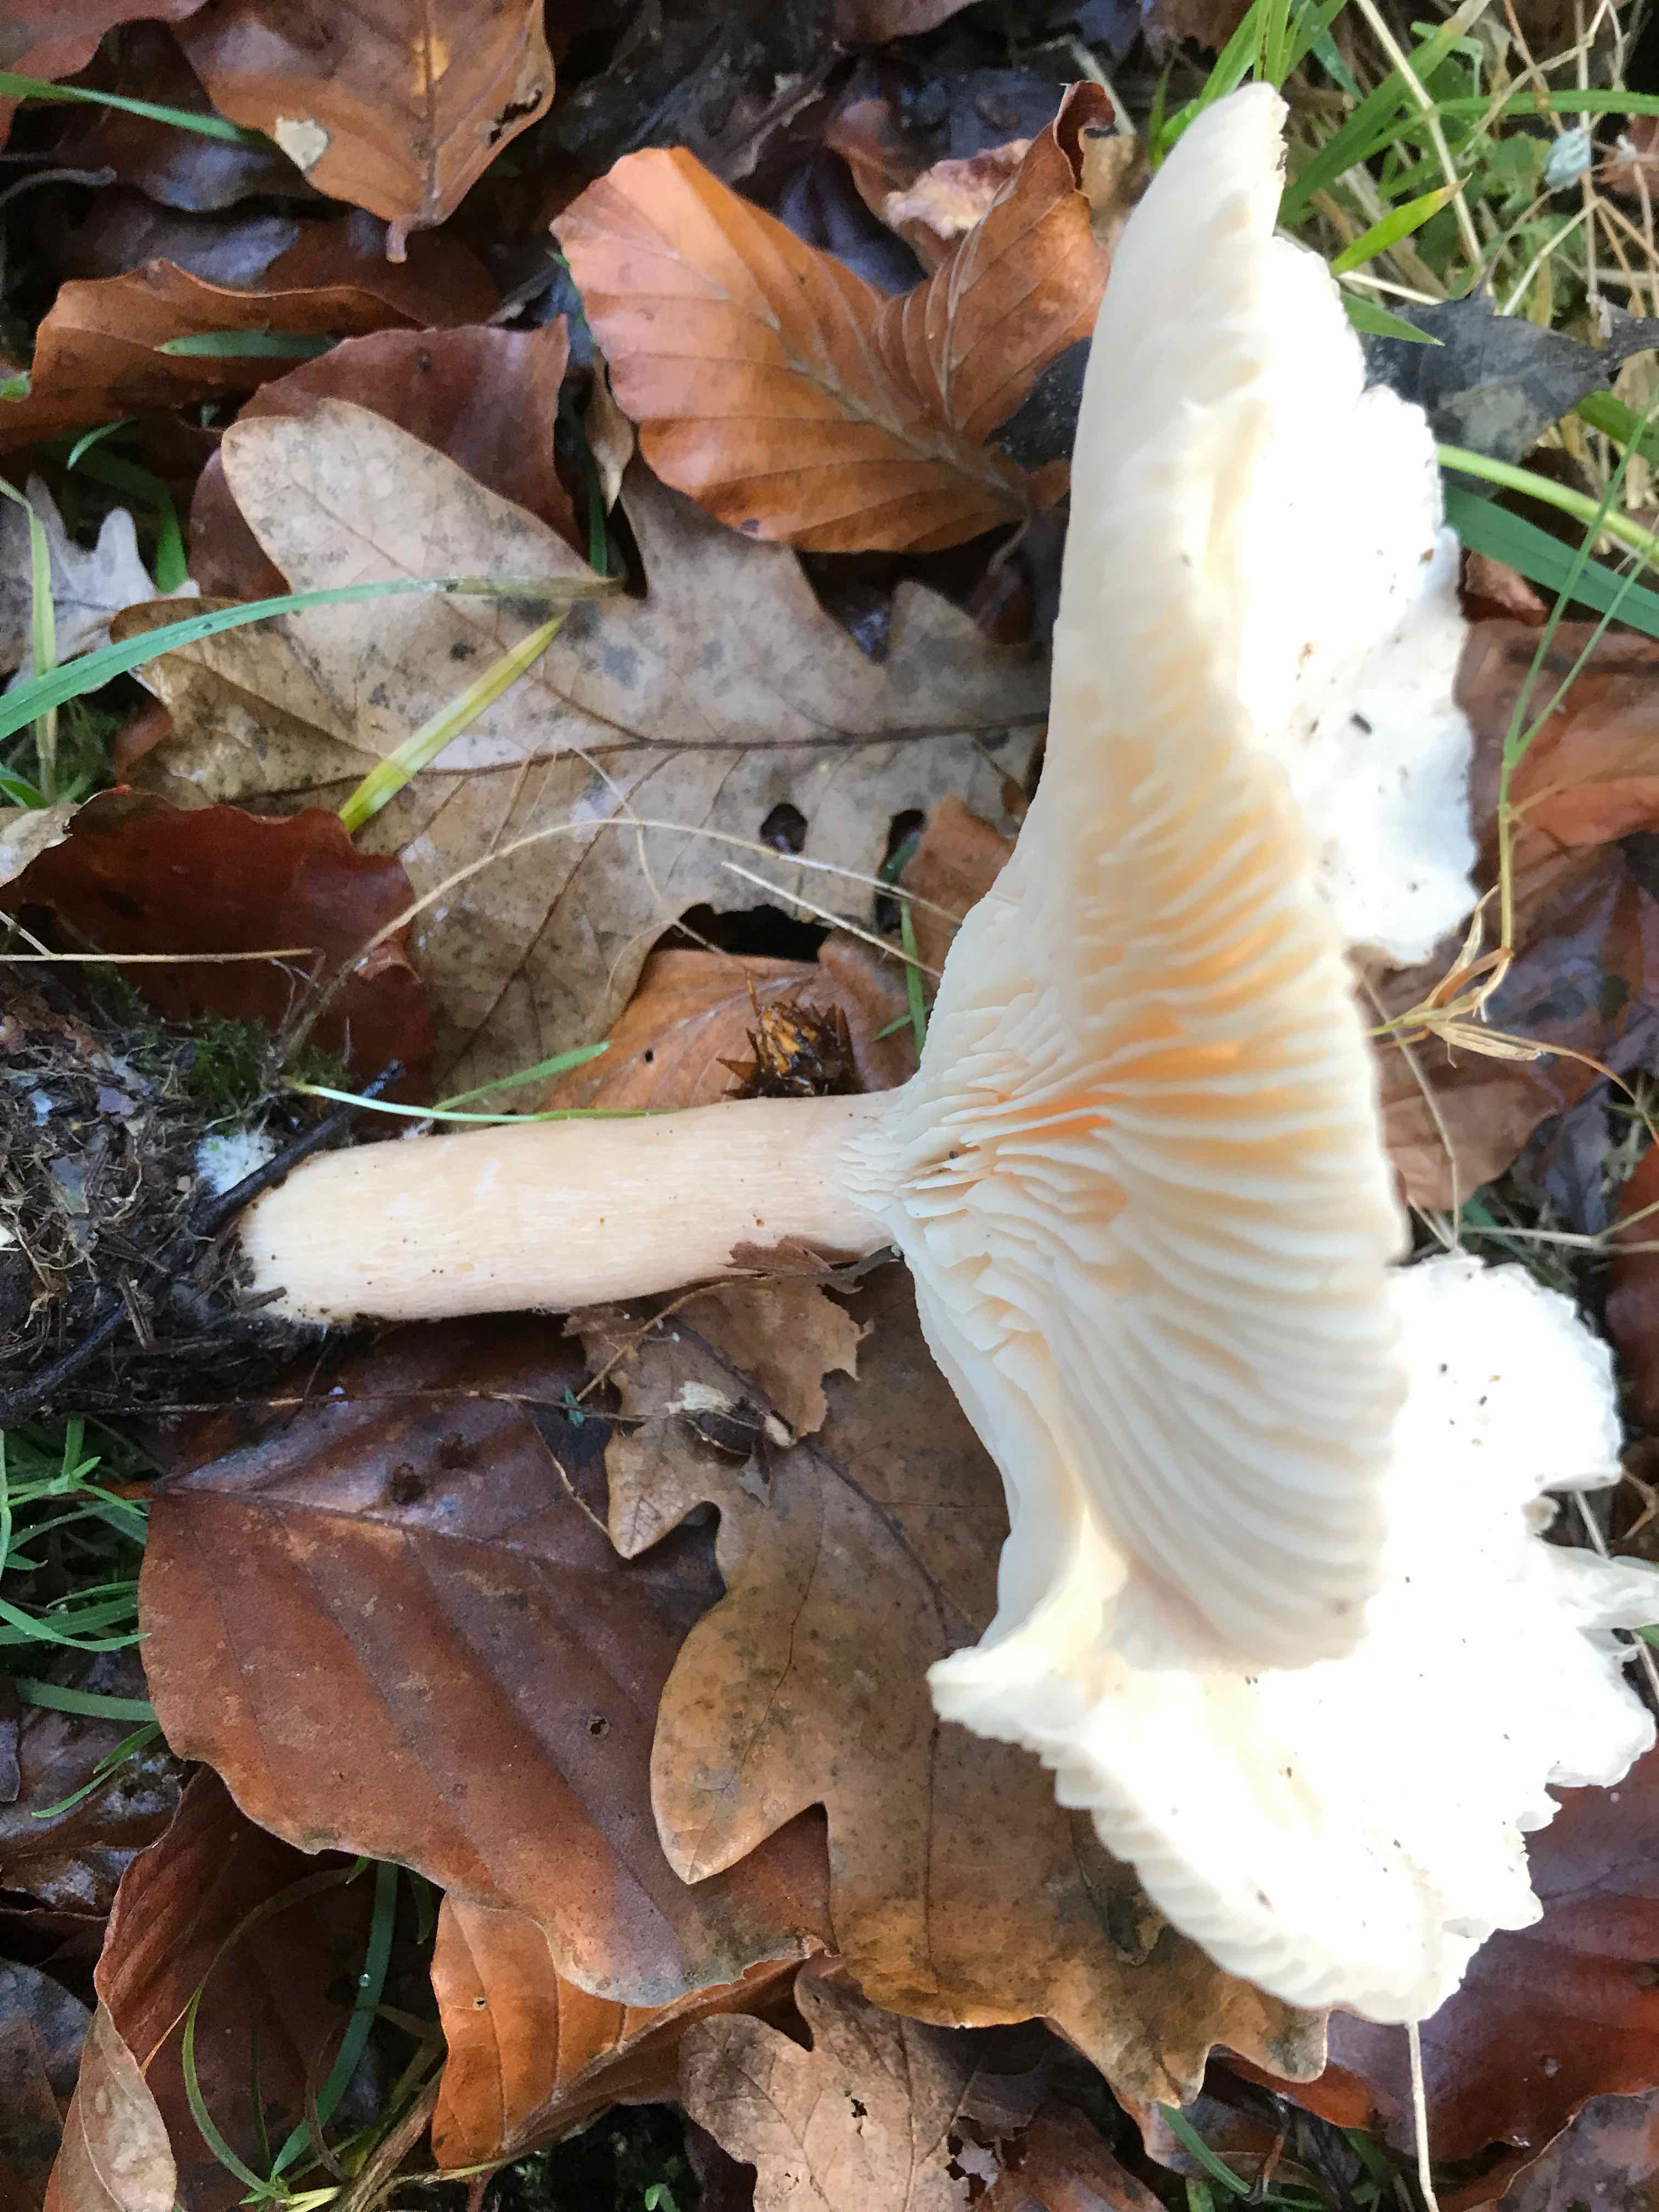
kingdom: Fungi
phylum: Basidiomycota
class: Agaricomycetes
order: Agaricales
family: Tricholomataceae
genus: Infundibulicybe
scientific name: Infundibulicybe geotropa
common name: stor tragthat
